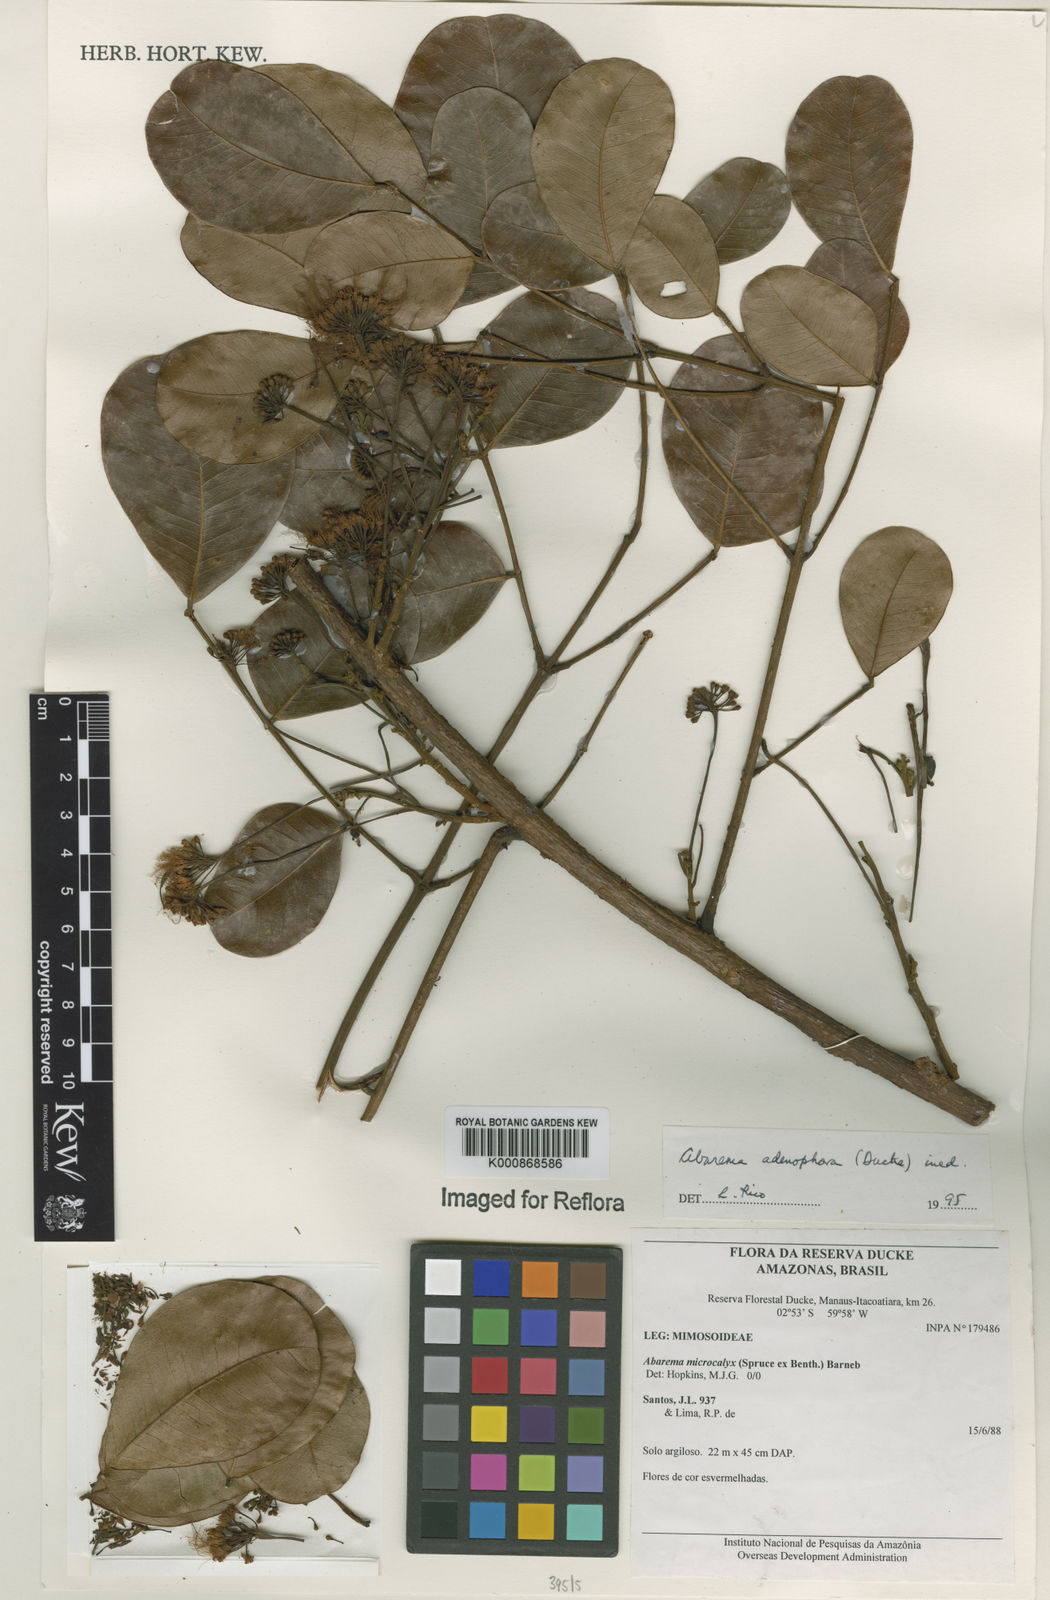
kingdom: Plantae
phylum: Tracheophyta
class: Magnoliopsida
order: Fabales
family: Fabaceae
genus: Jupunba
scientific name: Jupunba adenophora
